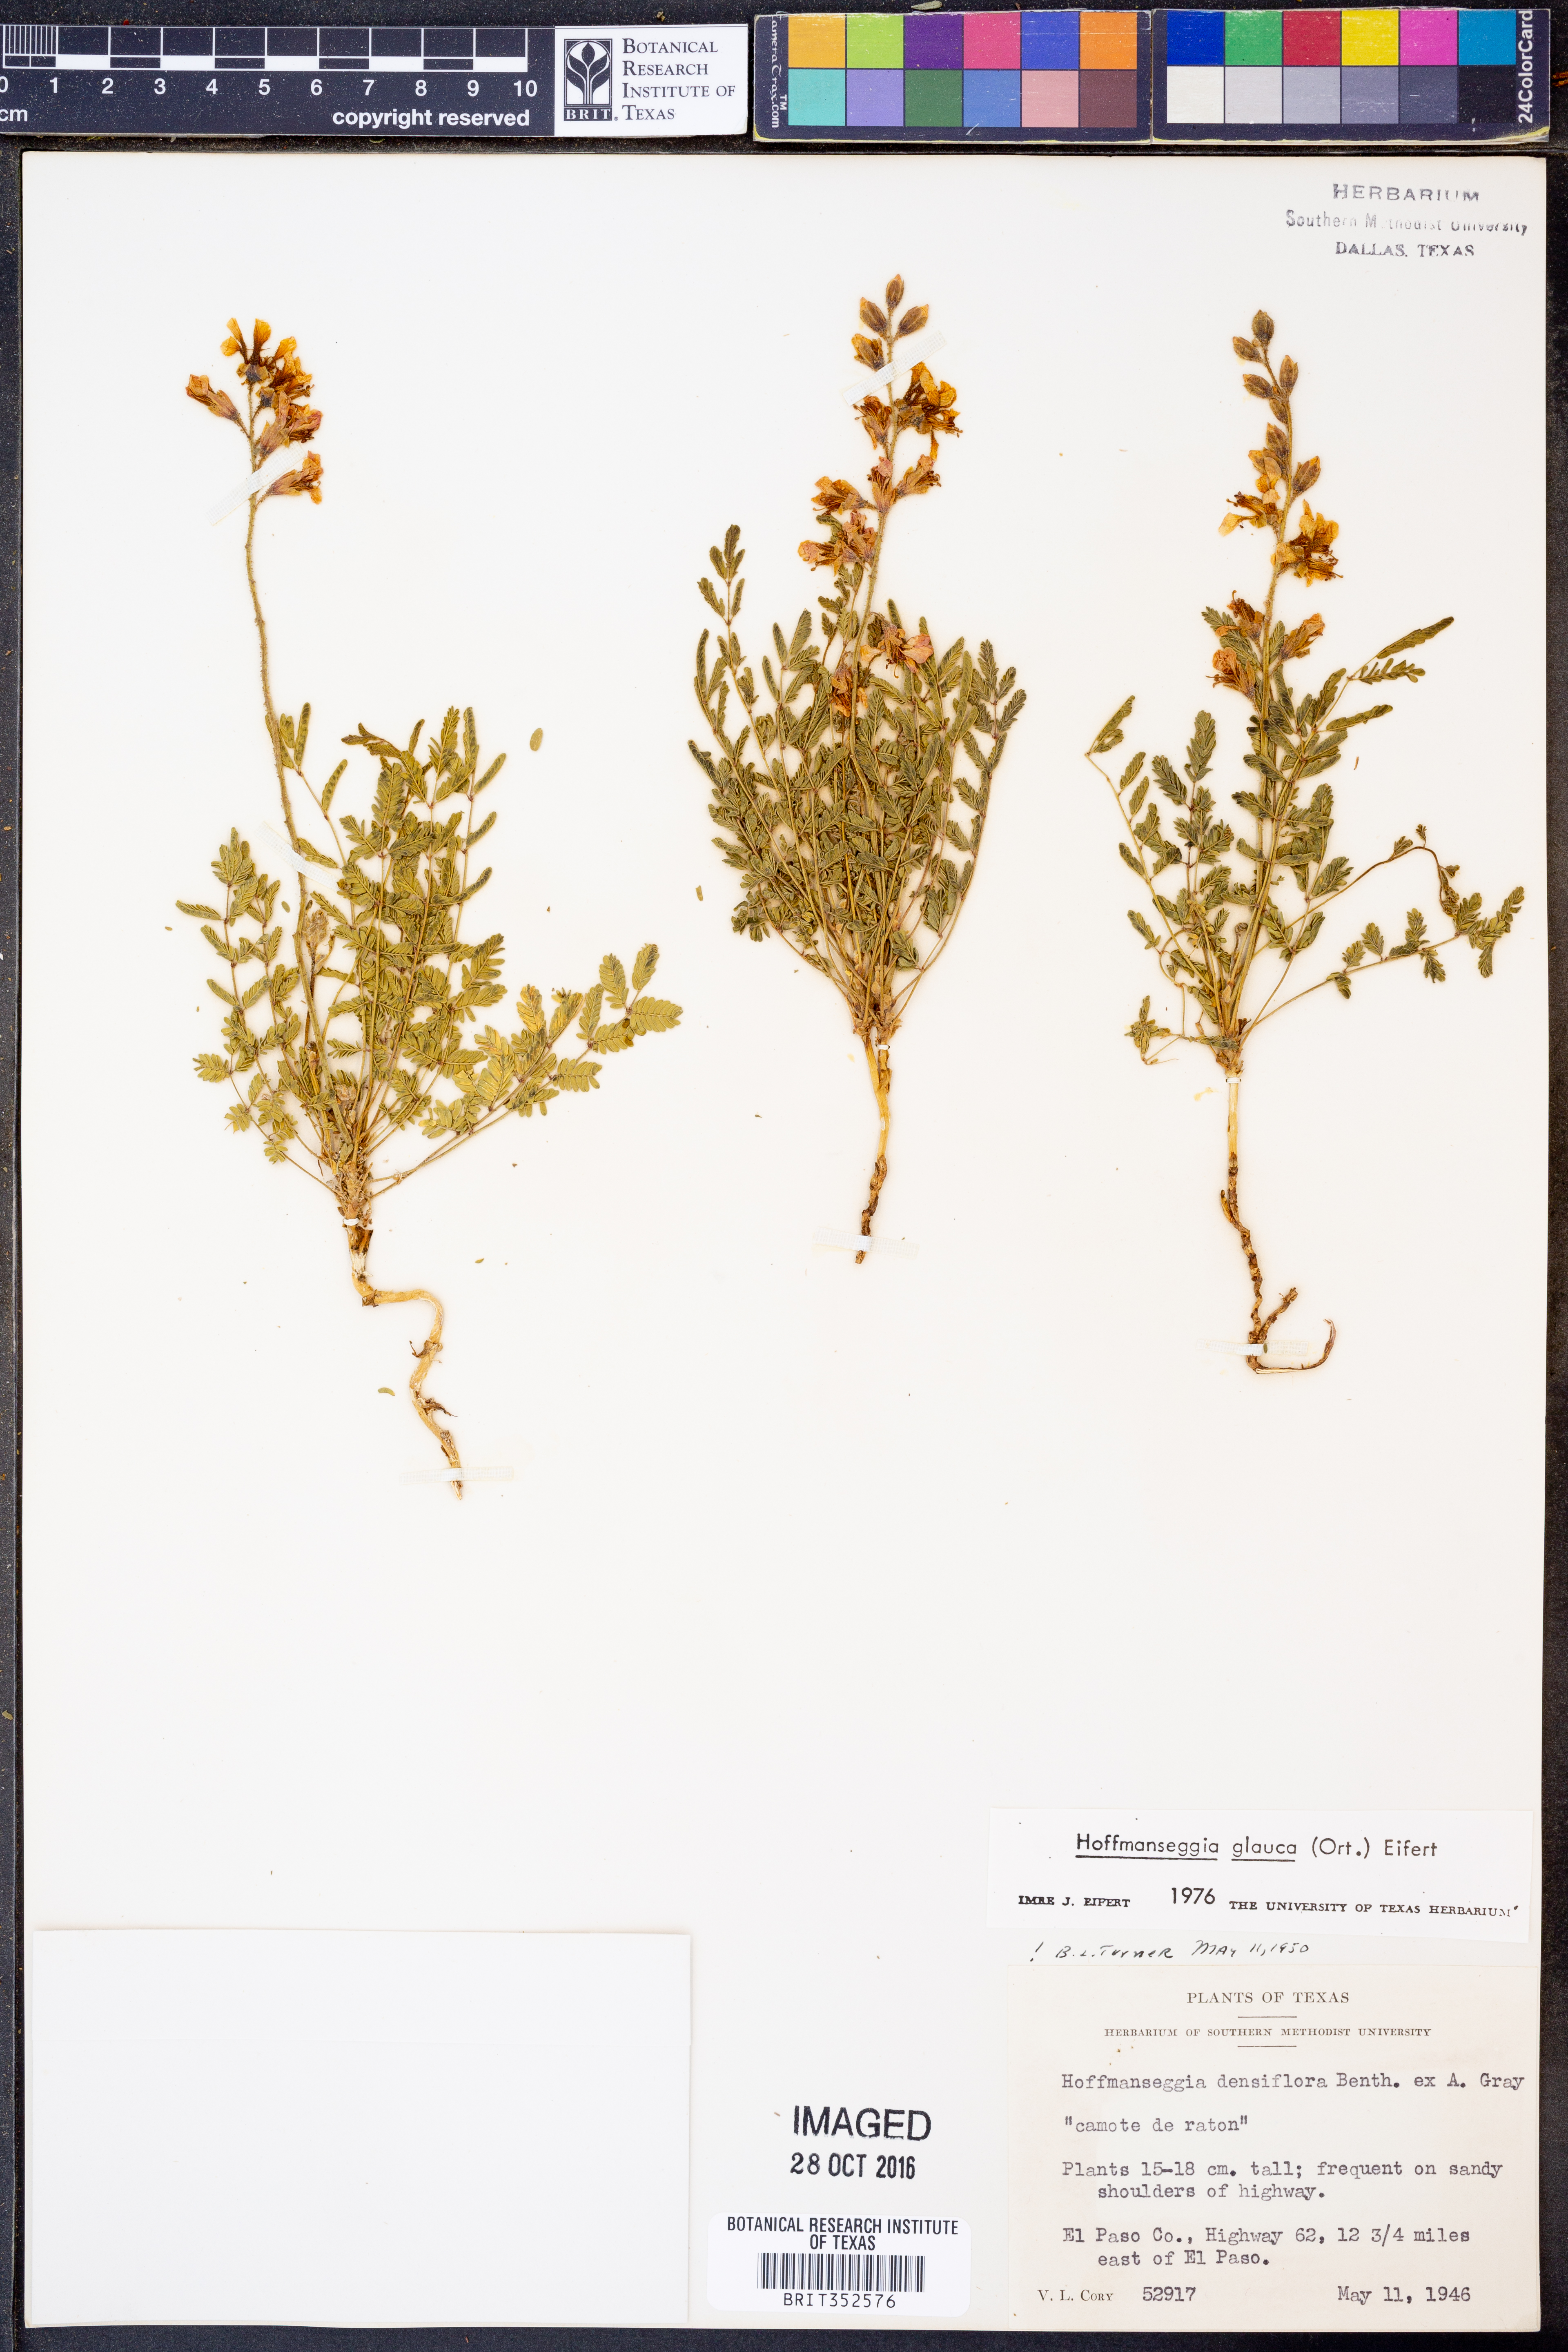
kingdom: Plantae
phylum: Tracheophyta
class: Magnoliopsida
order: Fabales
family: Fabaceae
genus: Hoffmannseggia
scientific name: Hoffmannseggia glauca
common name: Pignut
